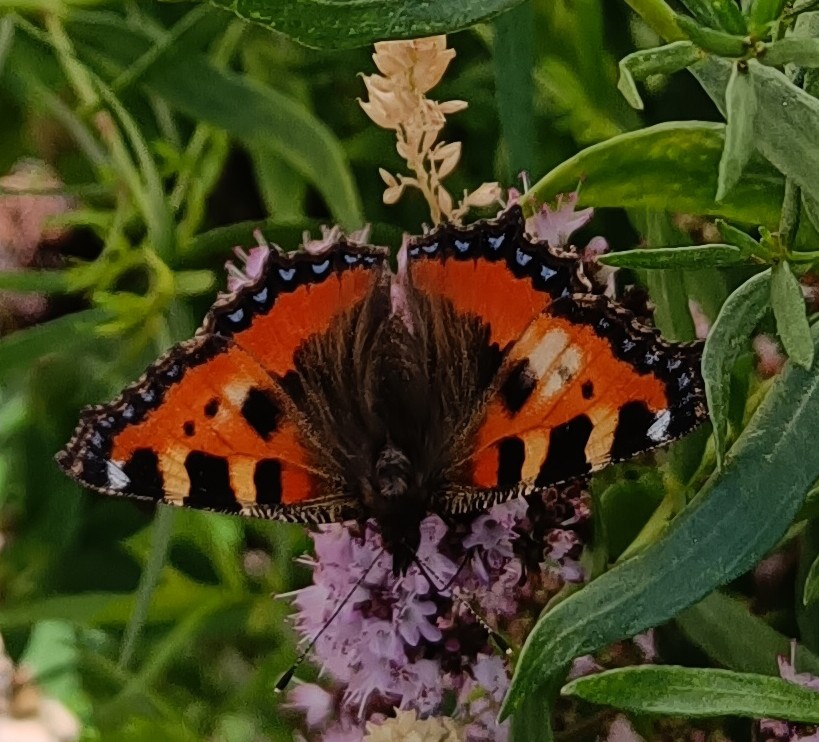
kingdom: Animalia
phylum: Arthropoda
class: Insecta
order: Lepidoptera
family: Nymphalidae
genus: Aglais
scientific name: Aglais urticae
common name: Nældens takvinge
